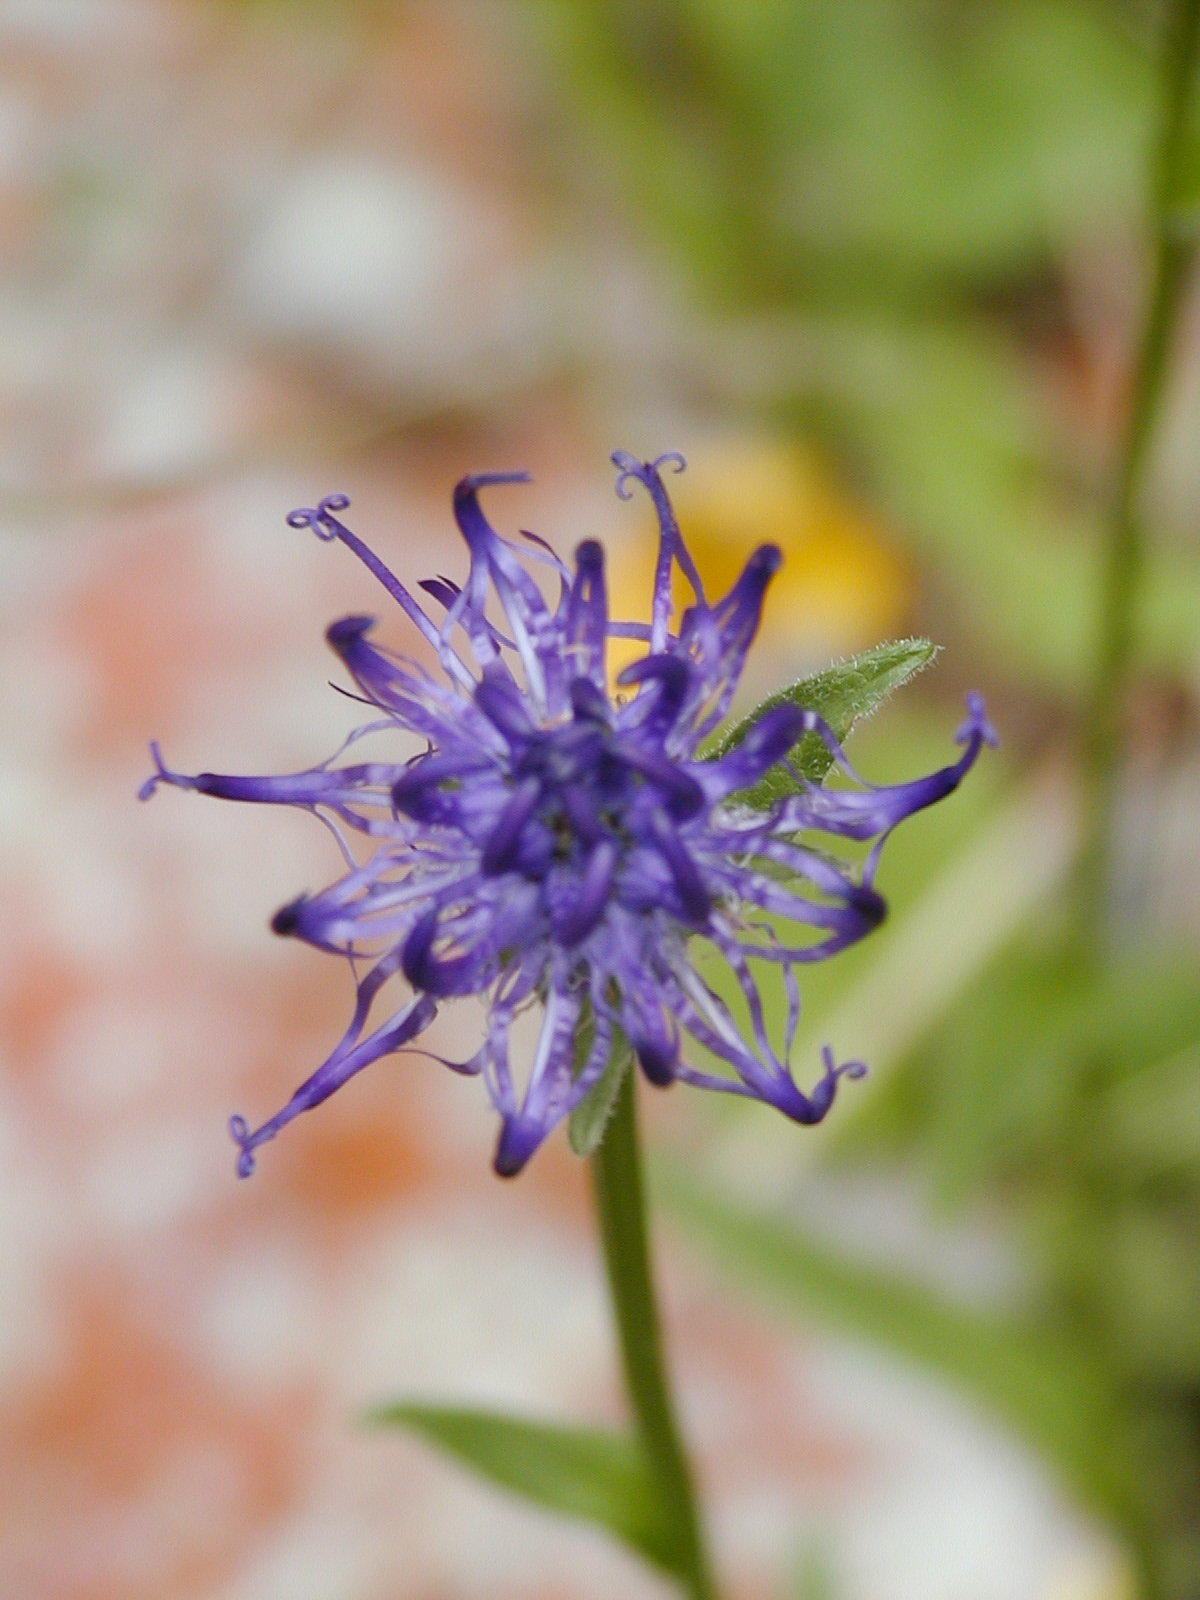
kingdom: Plantae
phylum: Tracheophyta
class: Magnoliopsida
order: Asterales
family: Campanulaceae
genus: Phyteuma
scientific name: Phyteuma hemisphaericum
